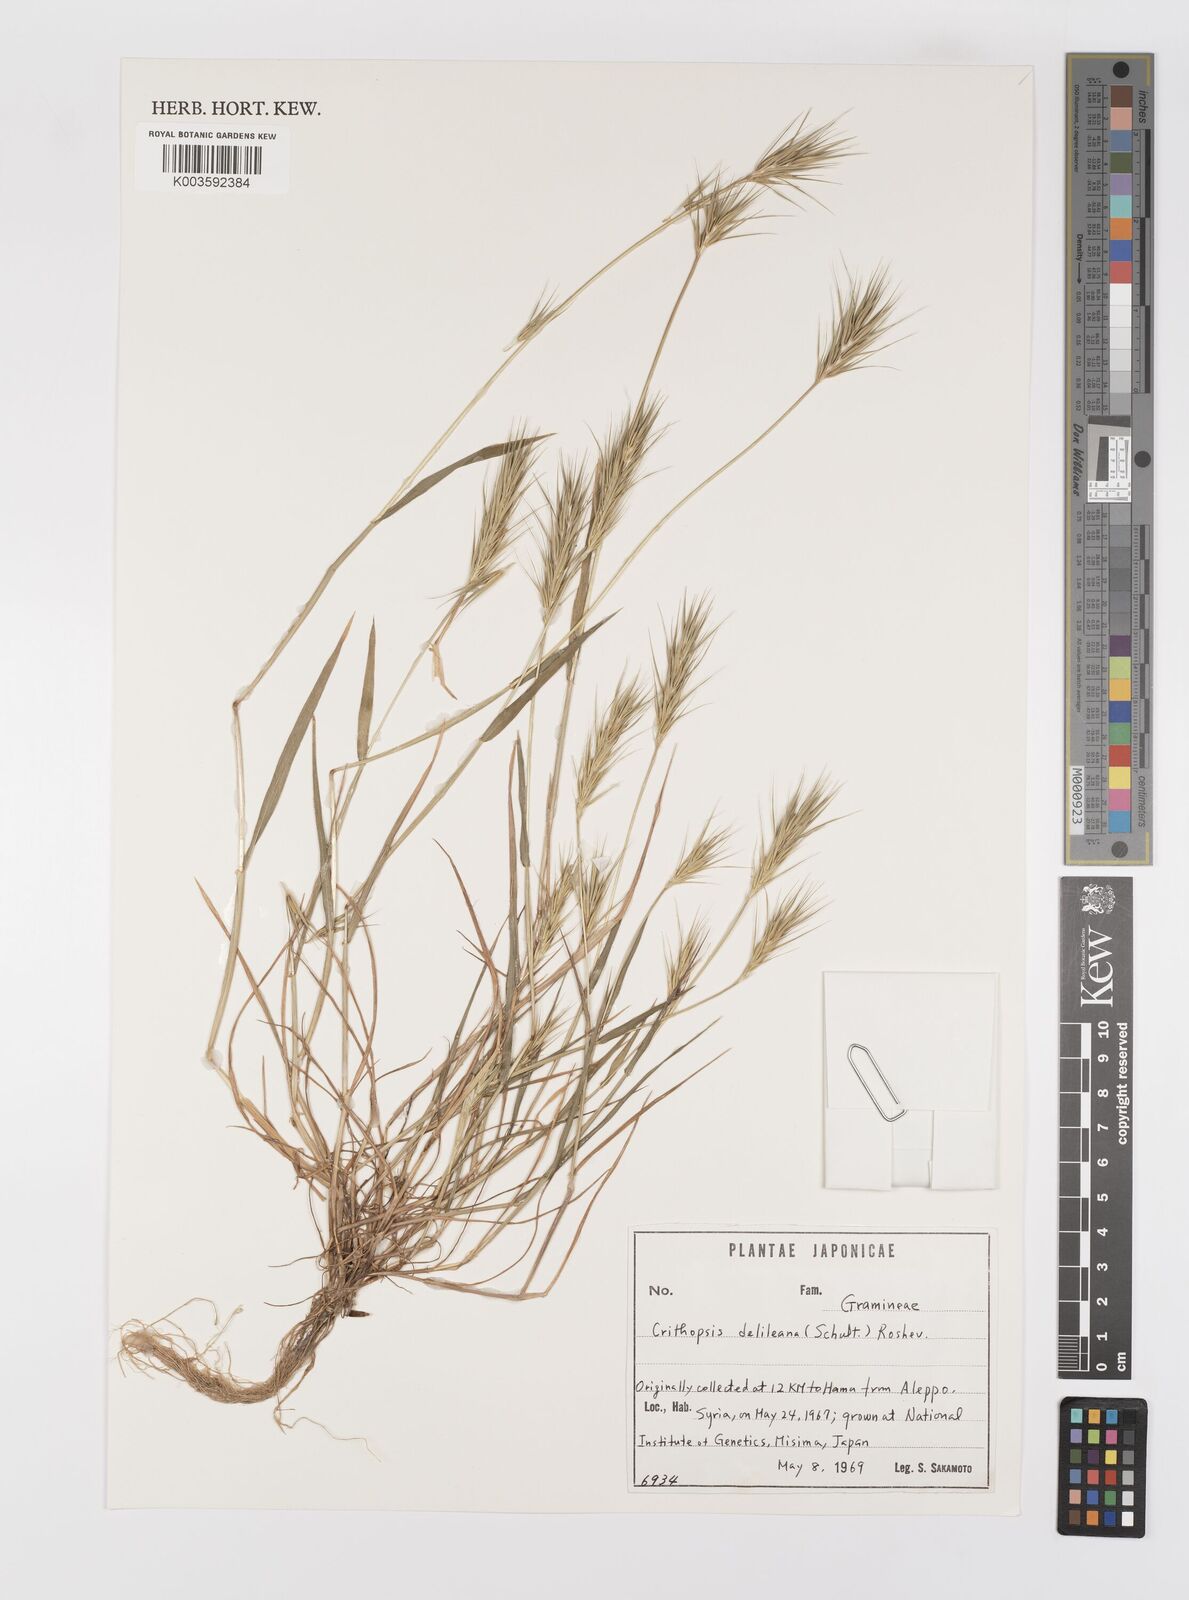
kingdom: Plantae
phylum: Tracheophyta
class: Liliopsida
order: Poales
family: Poaceae
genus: Crithopsis
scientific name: Crithopsis delileana
